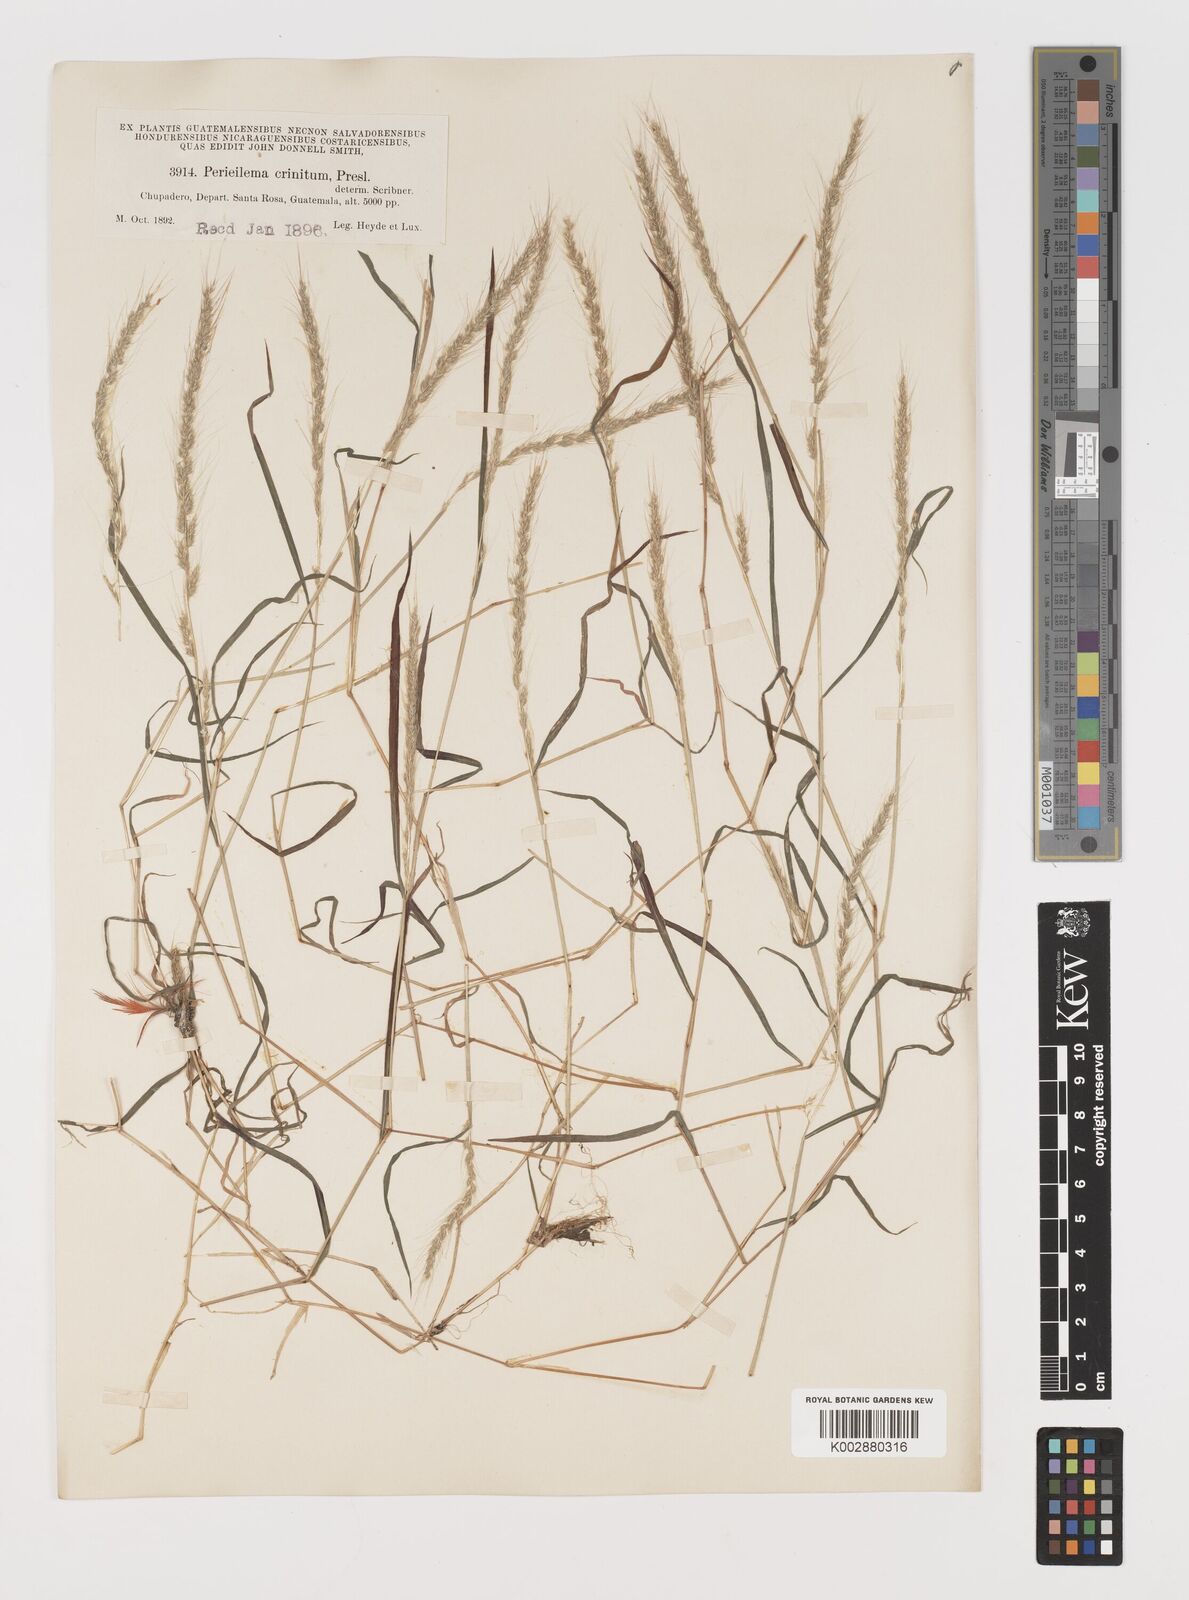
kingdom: Plantae
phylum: Tracheophyta
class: Liliopsida
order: Poales
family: Poaceae
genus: Muhlenbergia
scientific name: Muhlenbergia pereilema
